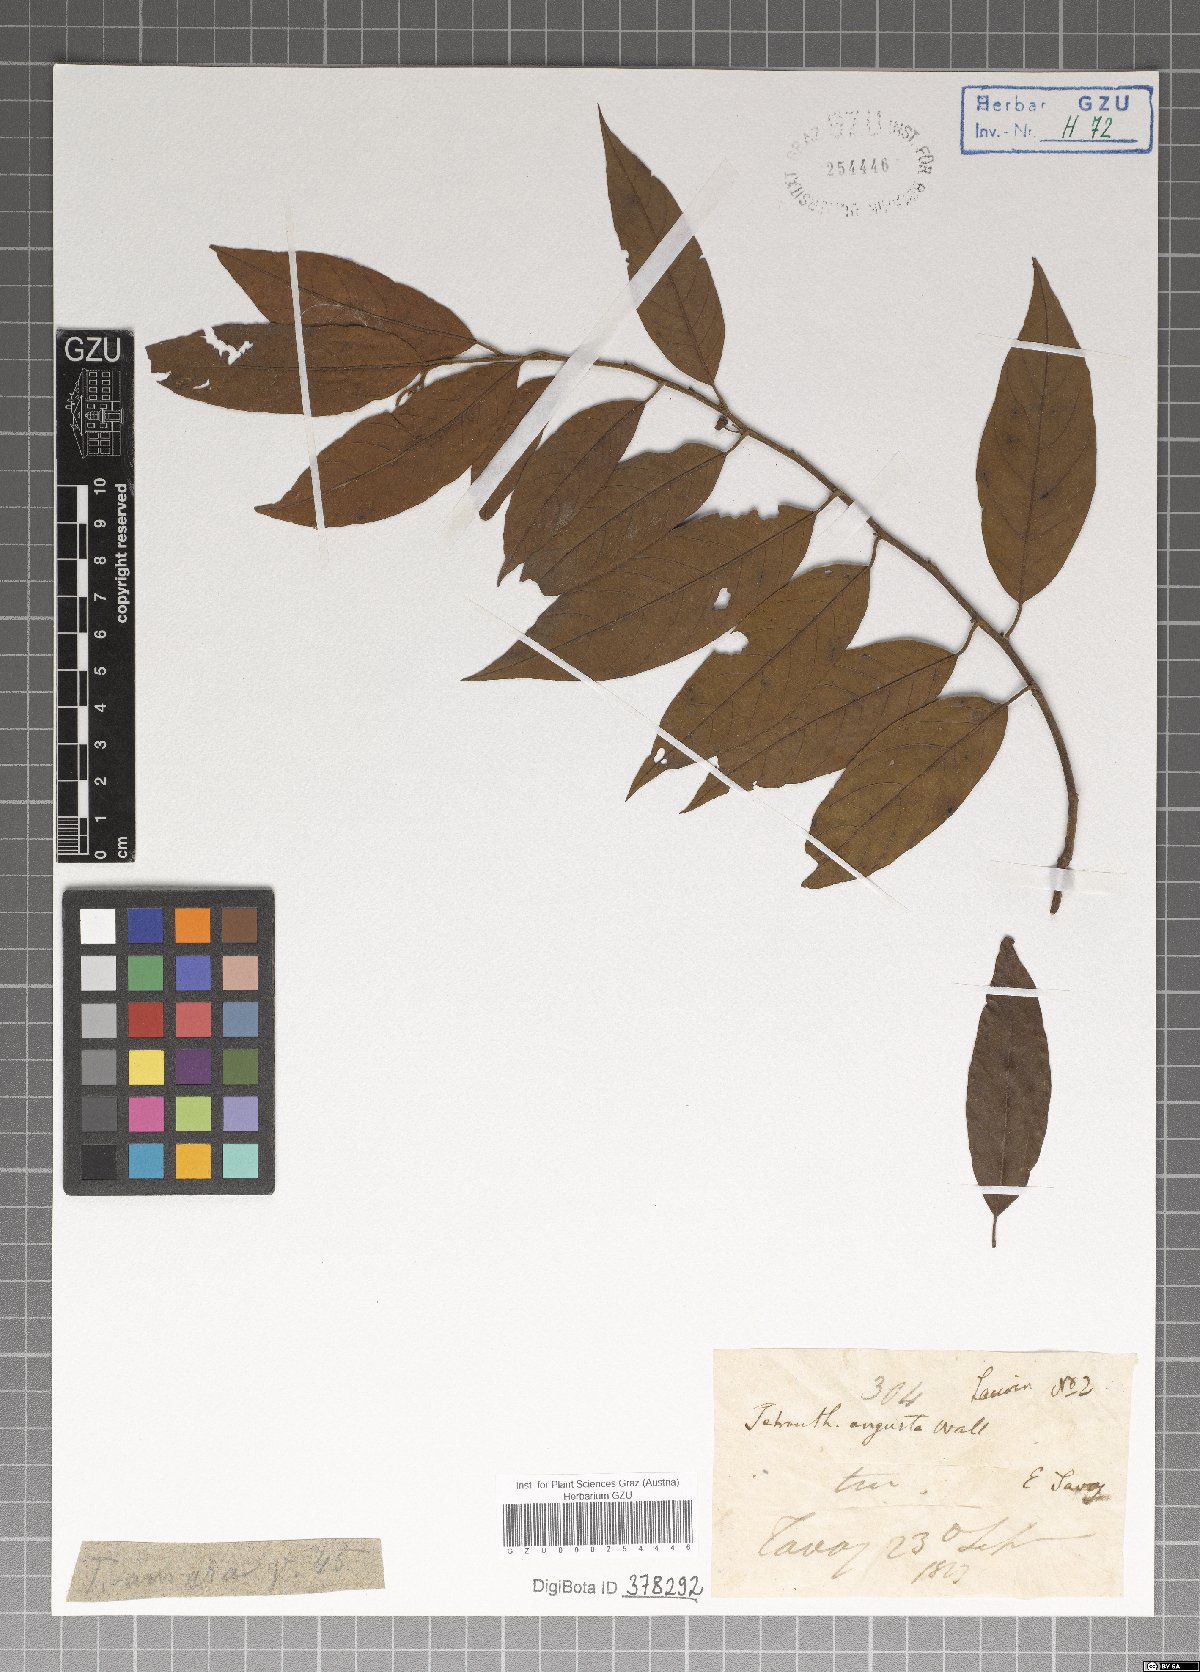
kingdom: Plantae
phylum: Tracheophyta
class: Magnoliopsida
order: Laurales
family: Lauraceae
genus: Litsea
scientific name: Litsea umbellata
